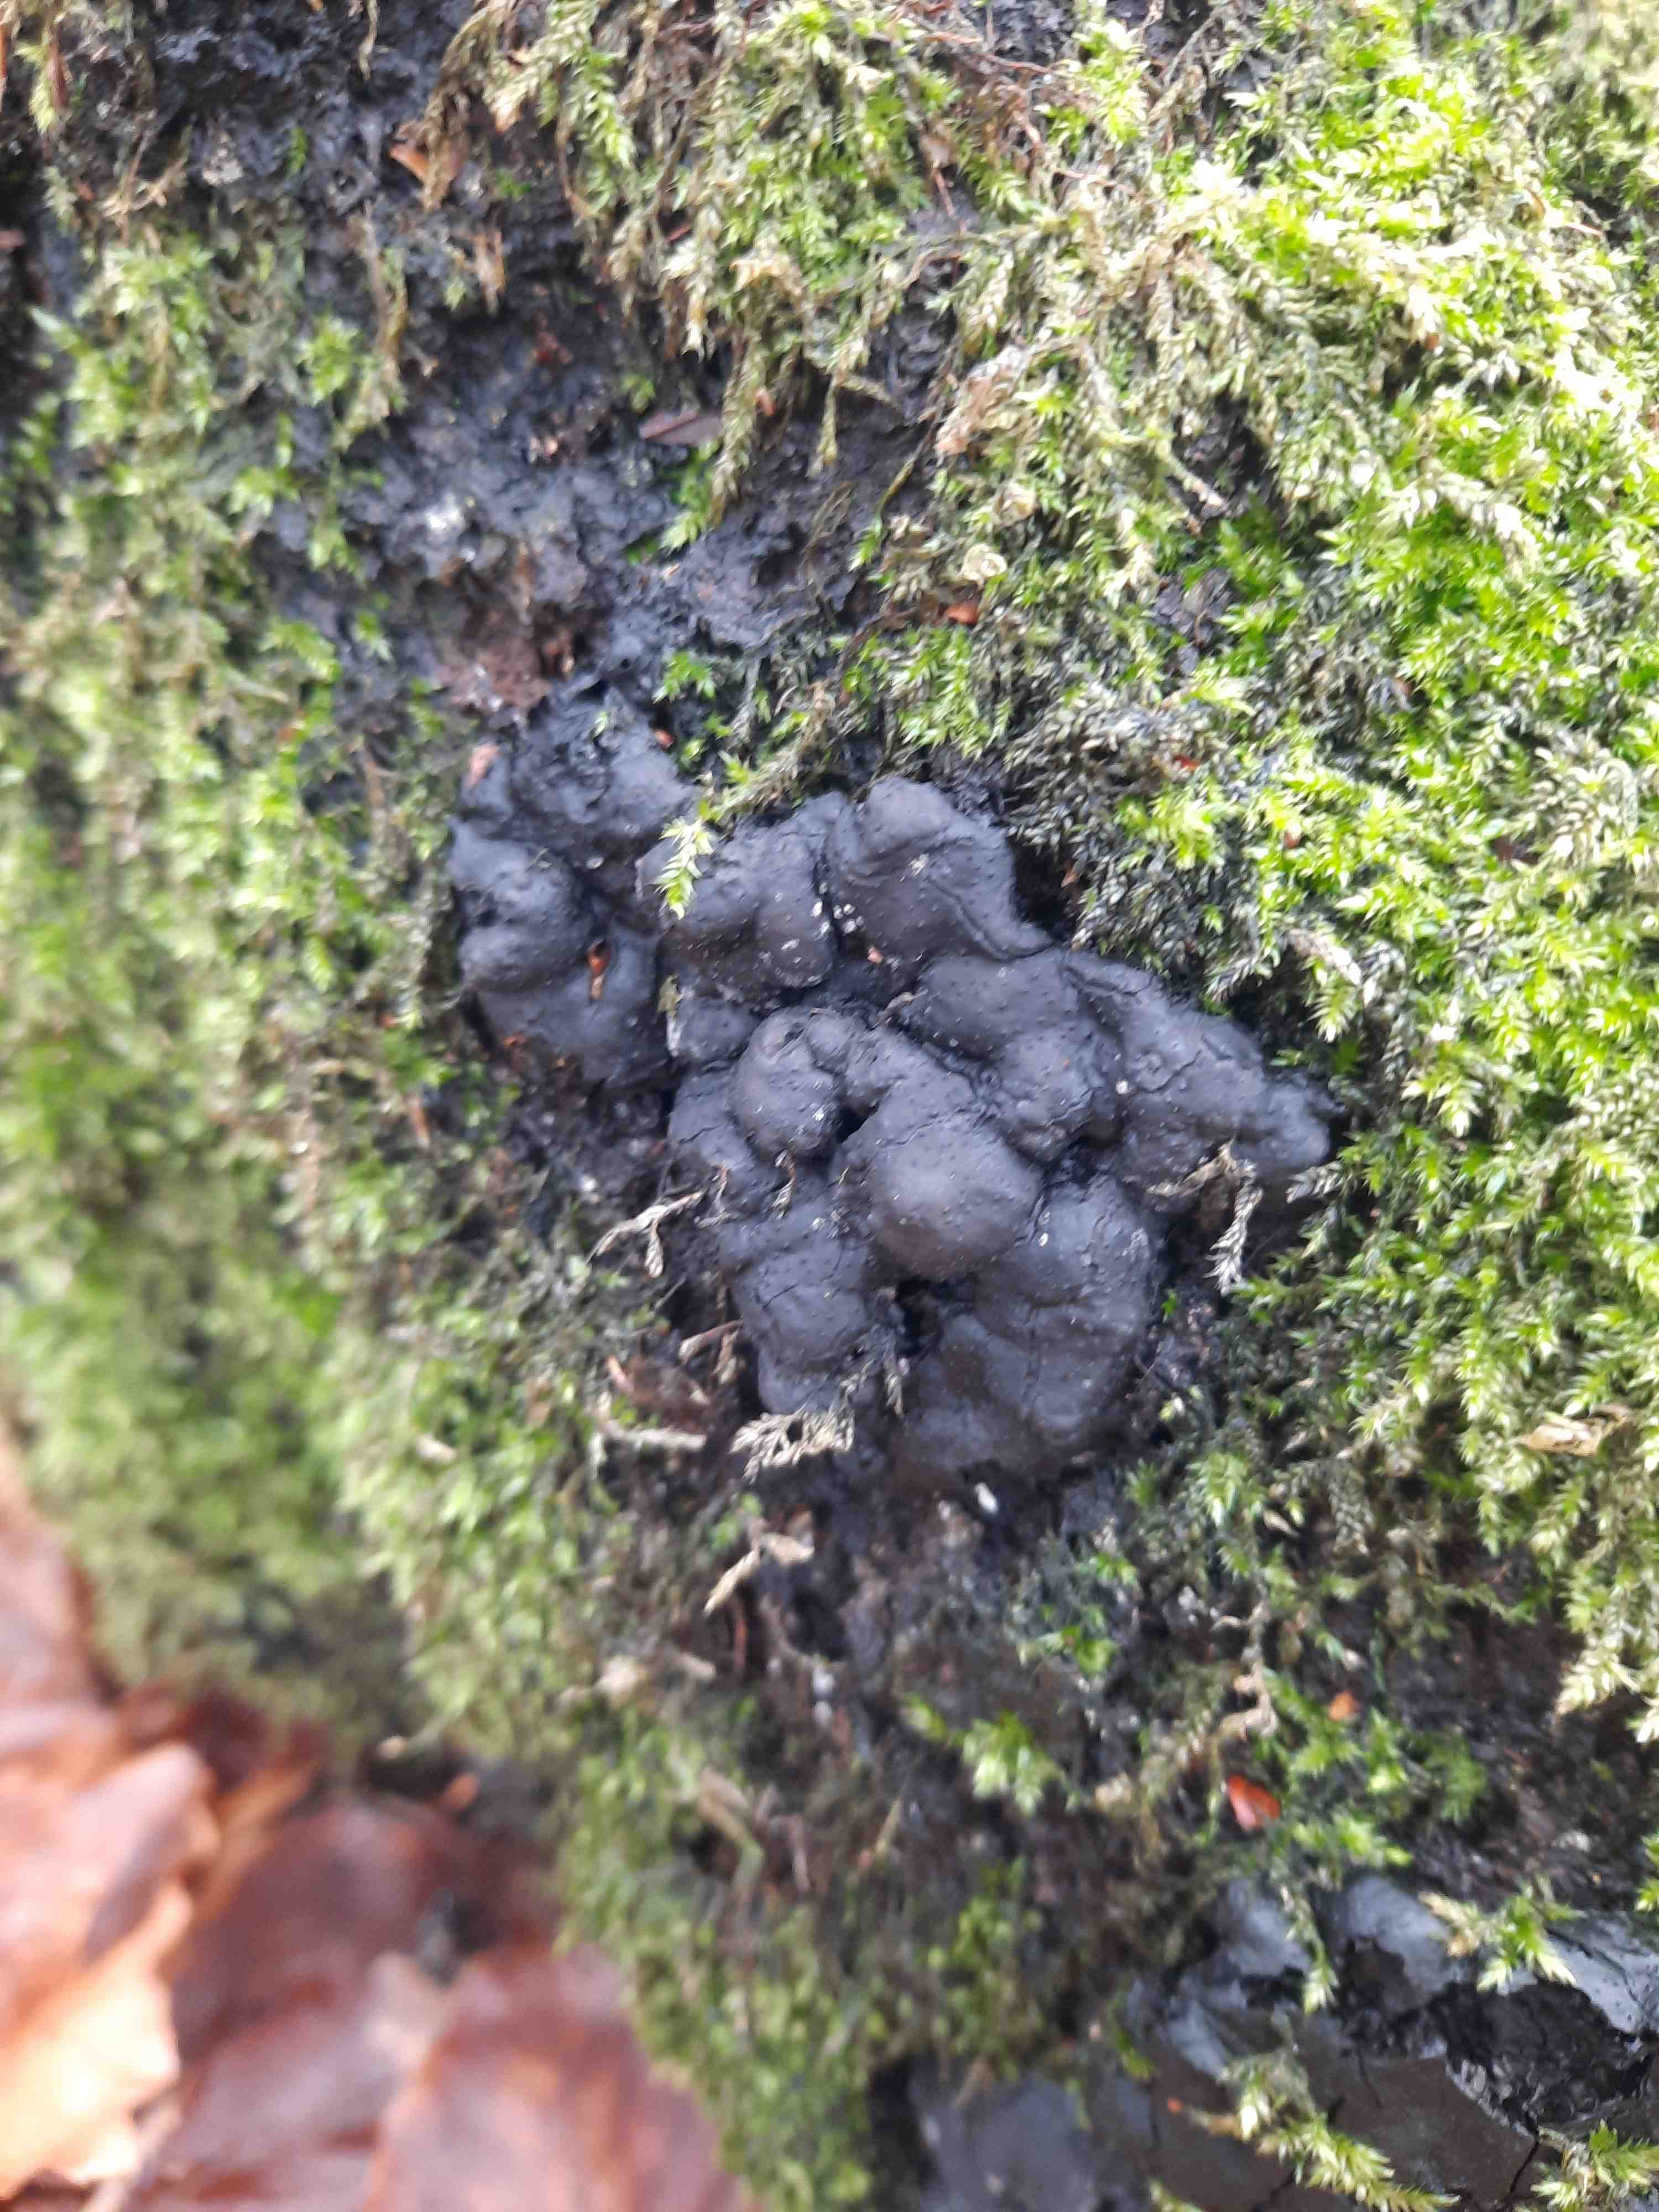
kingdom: Fungi
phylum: Ascomycota
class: Sordariomycetes
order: Xylariales
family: Xylariaceae
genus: Kretzschmaria
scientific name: Kretzschmaria deusta
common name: stor kulsvamp
